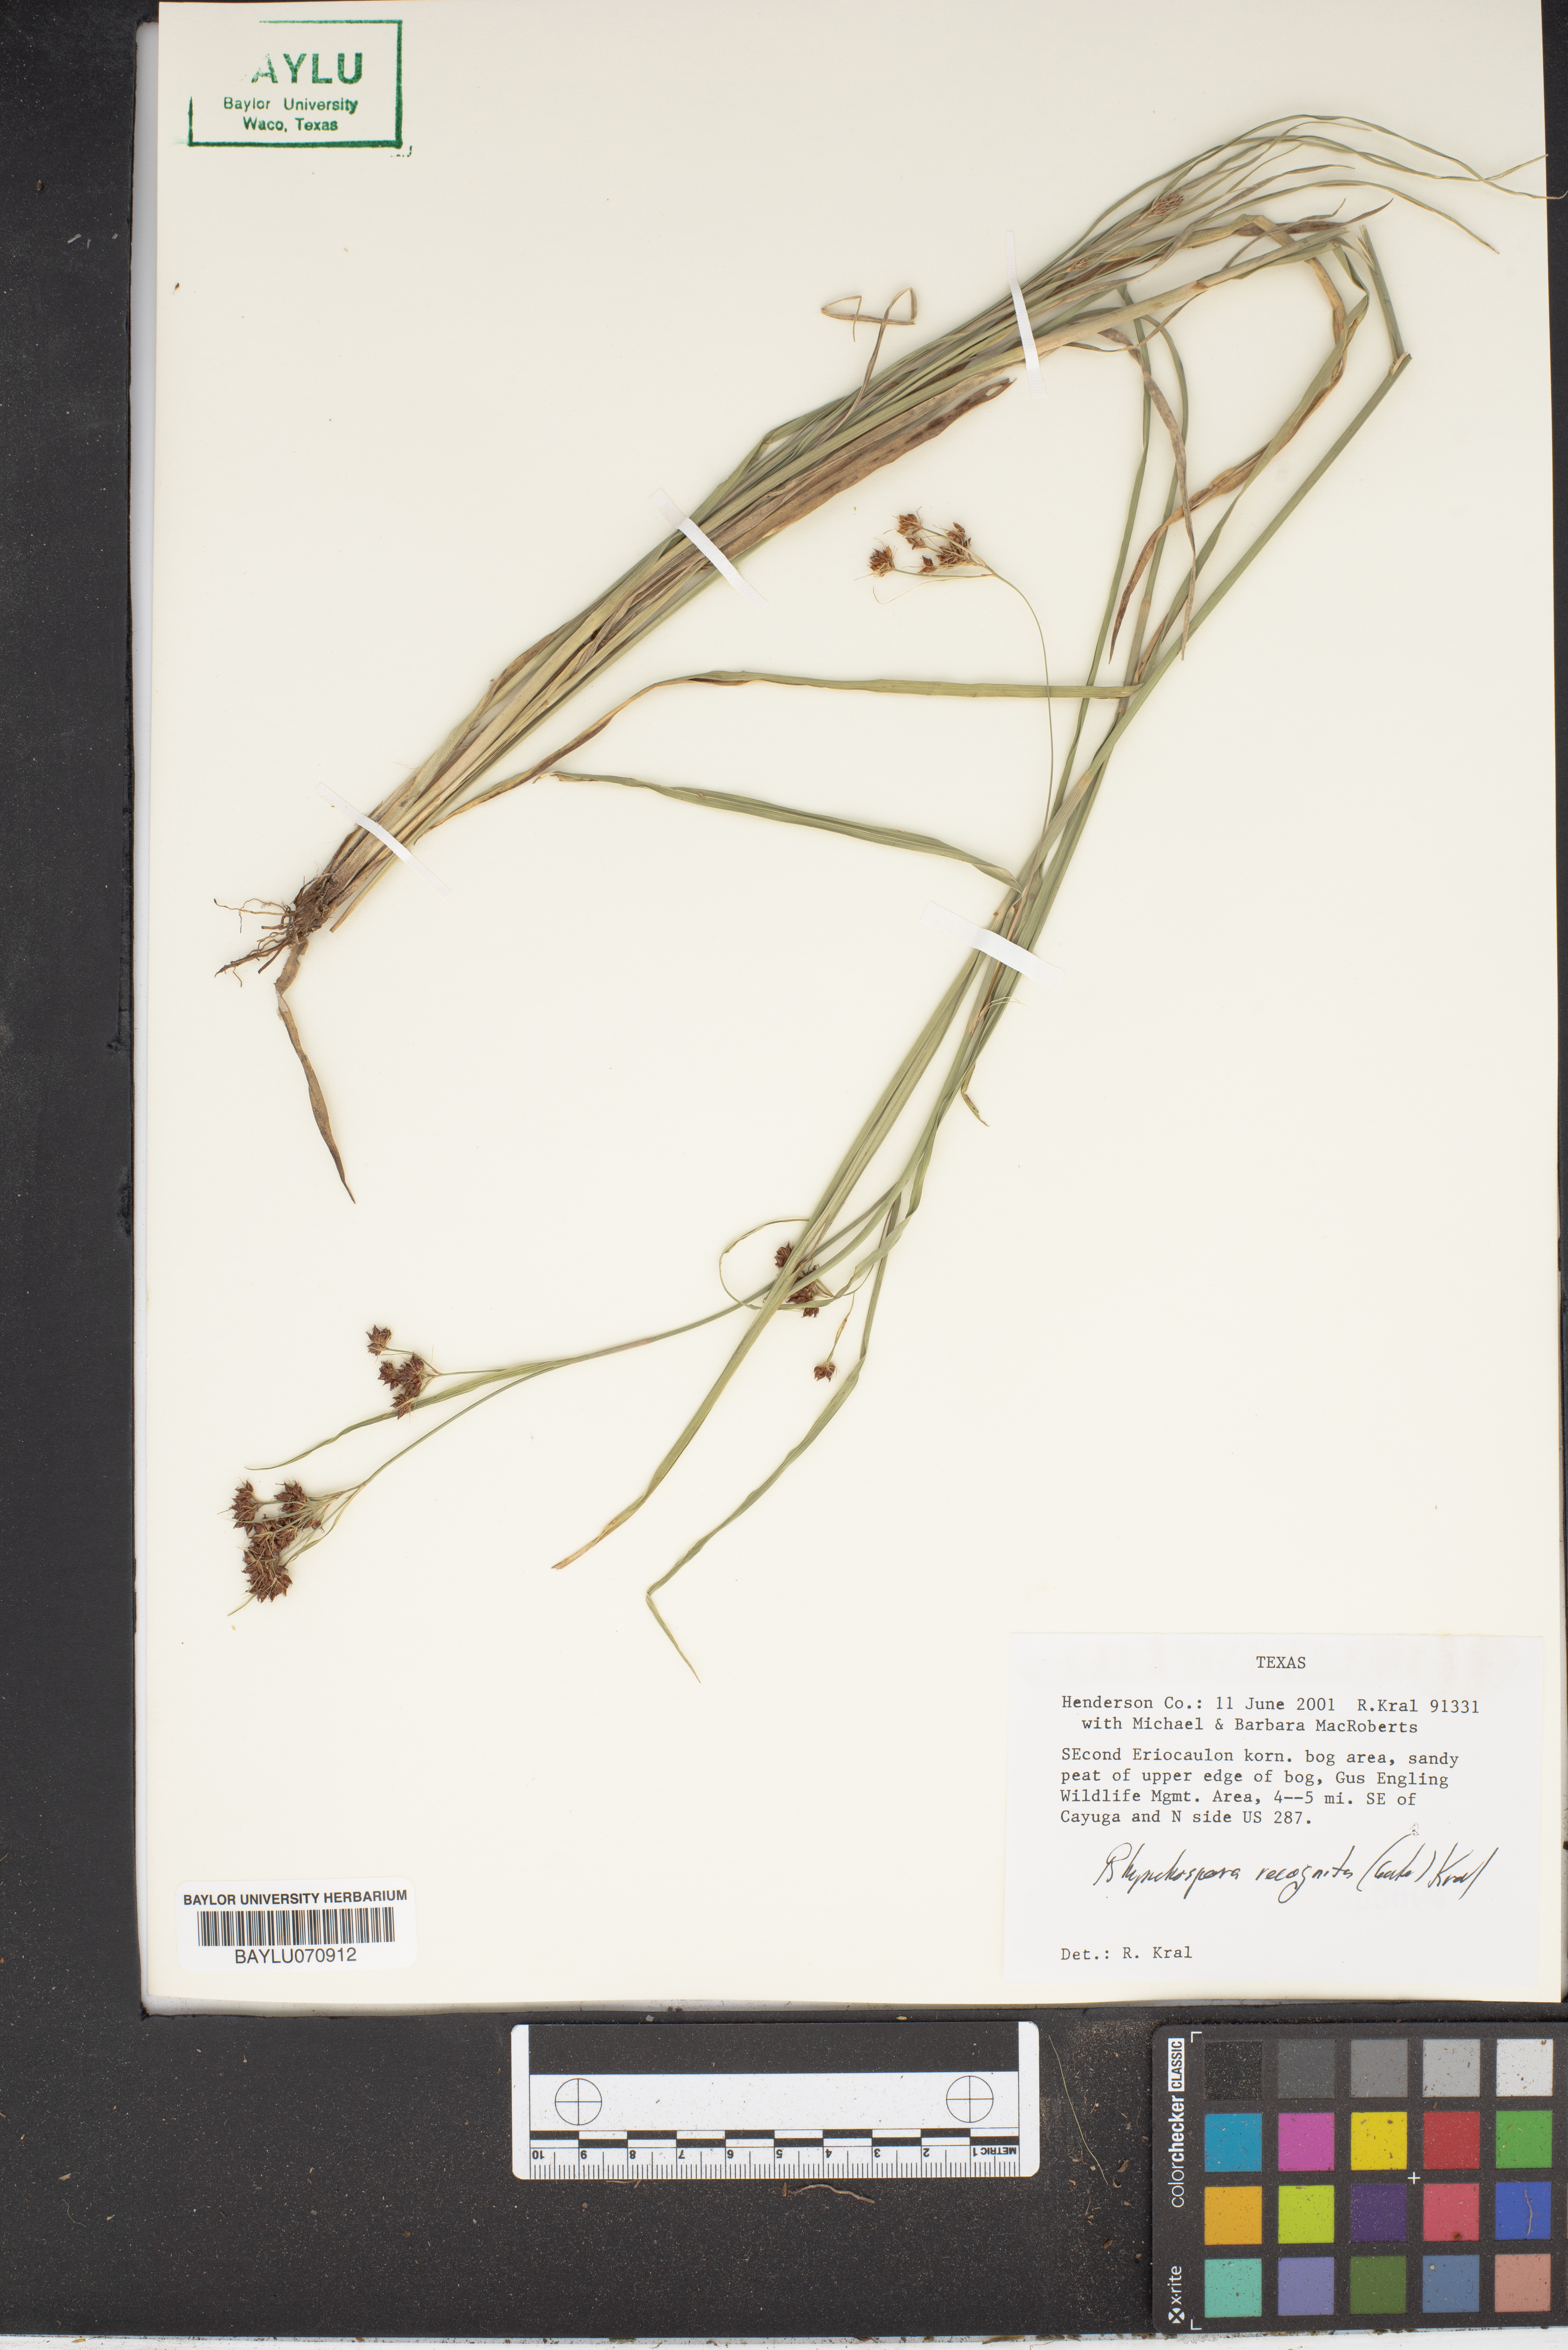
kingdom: Plantae
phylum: Tracheophyta
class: Liliopsida
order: Poales
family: Cyperaceae
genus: Rhynchospora
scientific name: Rhynchospora recognita
